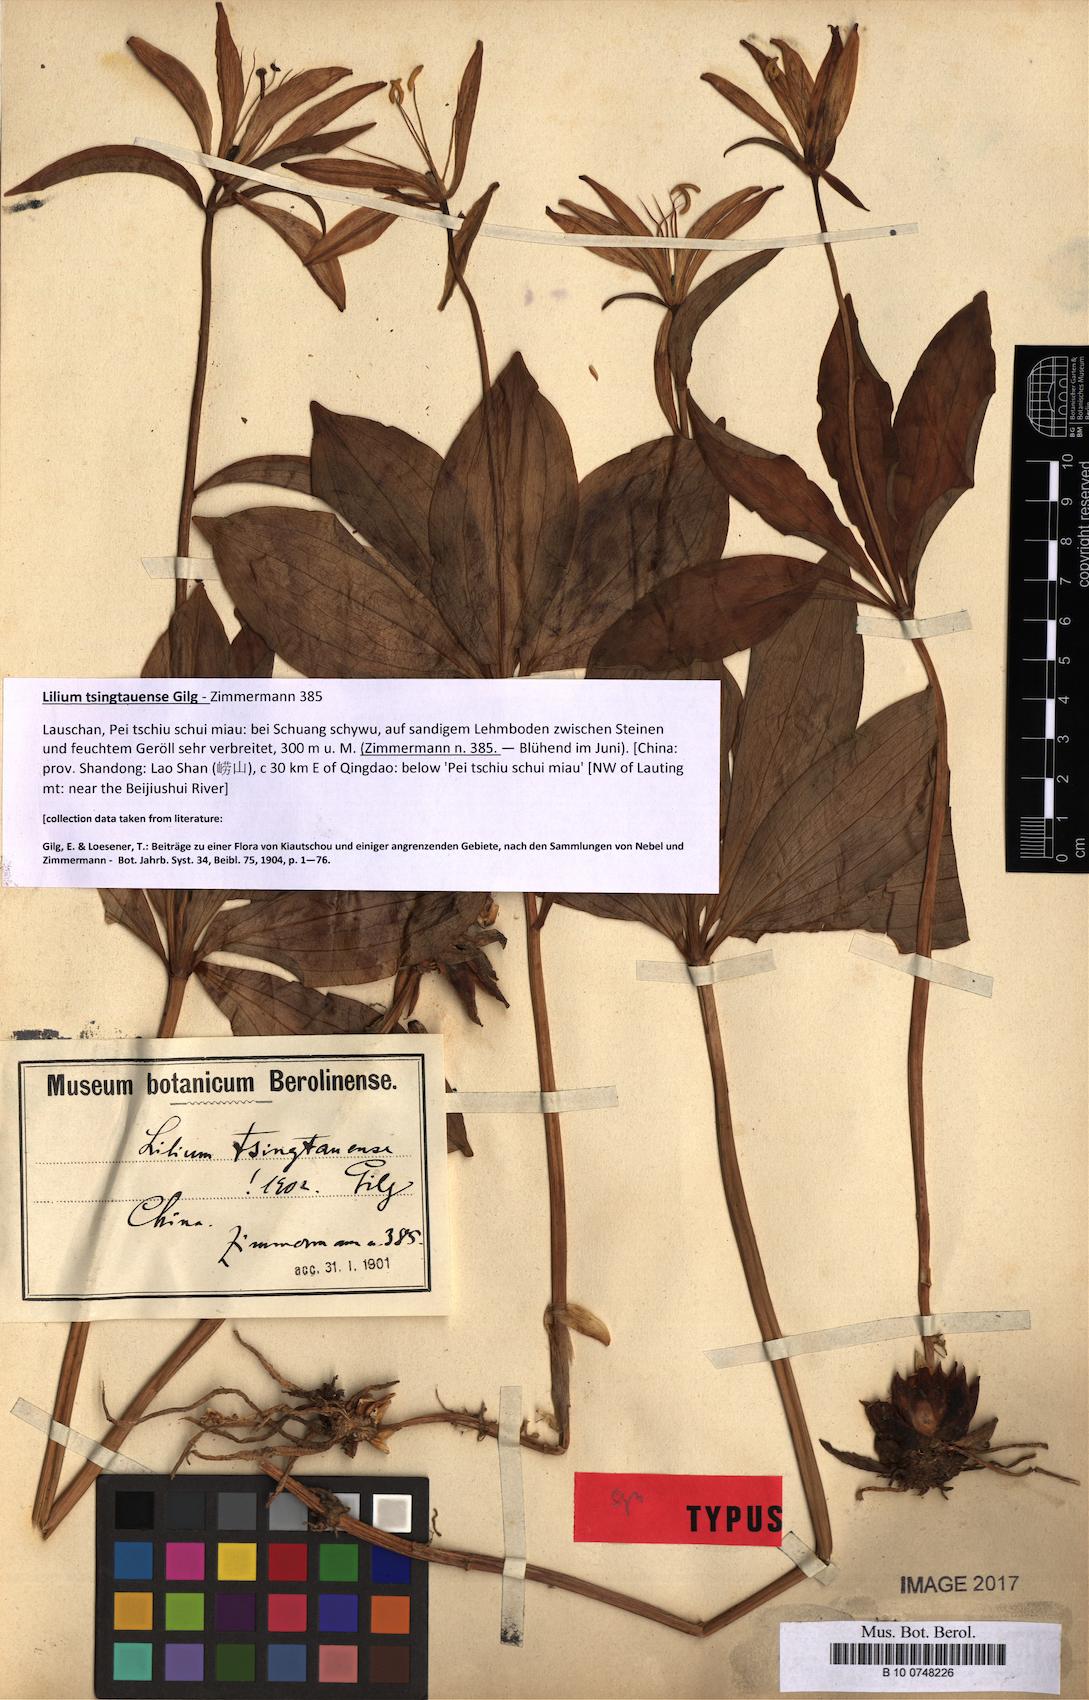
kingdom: Plantae
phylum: Tracheophyta
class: Liliopsida
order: Liliales
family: Liliaceae
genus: Lilium
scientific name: Lilium tsingtauense
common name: Korean wheel lily
